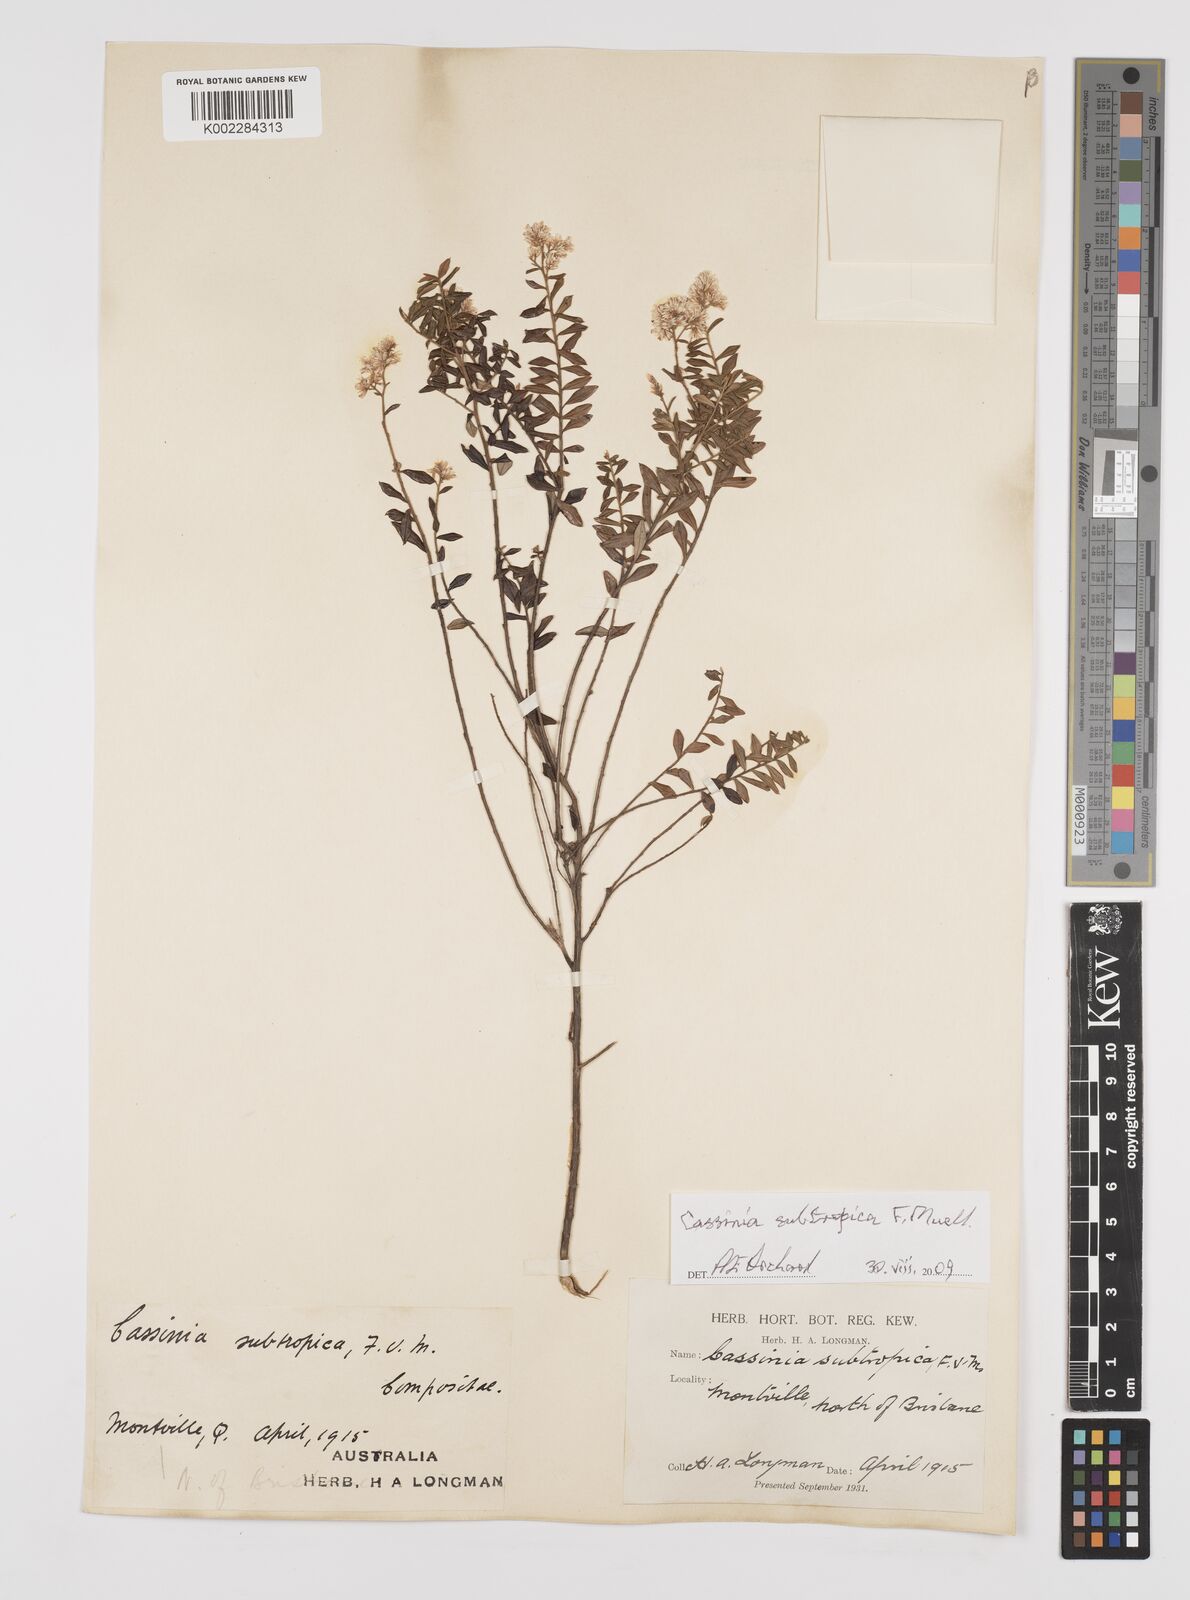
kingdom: Plantae
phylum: Tracheophyta
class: Magnoliopsida
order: Asterales
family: Asteraceae
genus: Cassinia
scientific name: Cassinia subtropica
